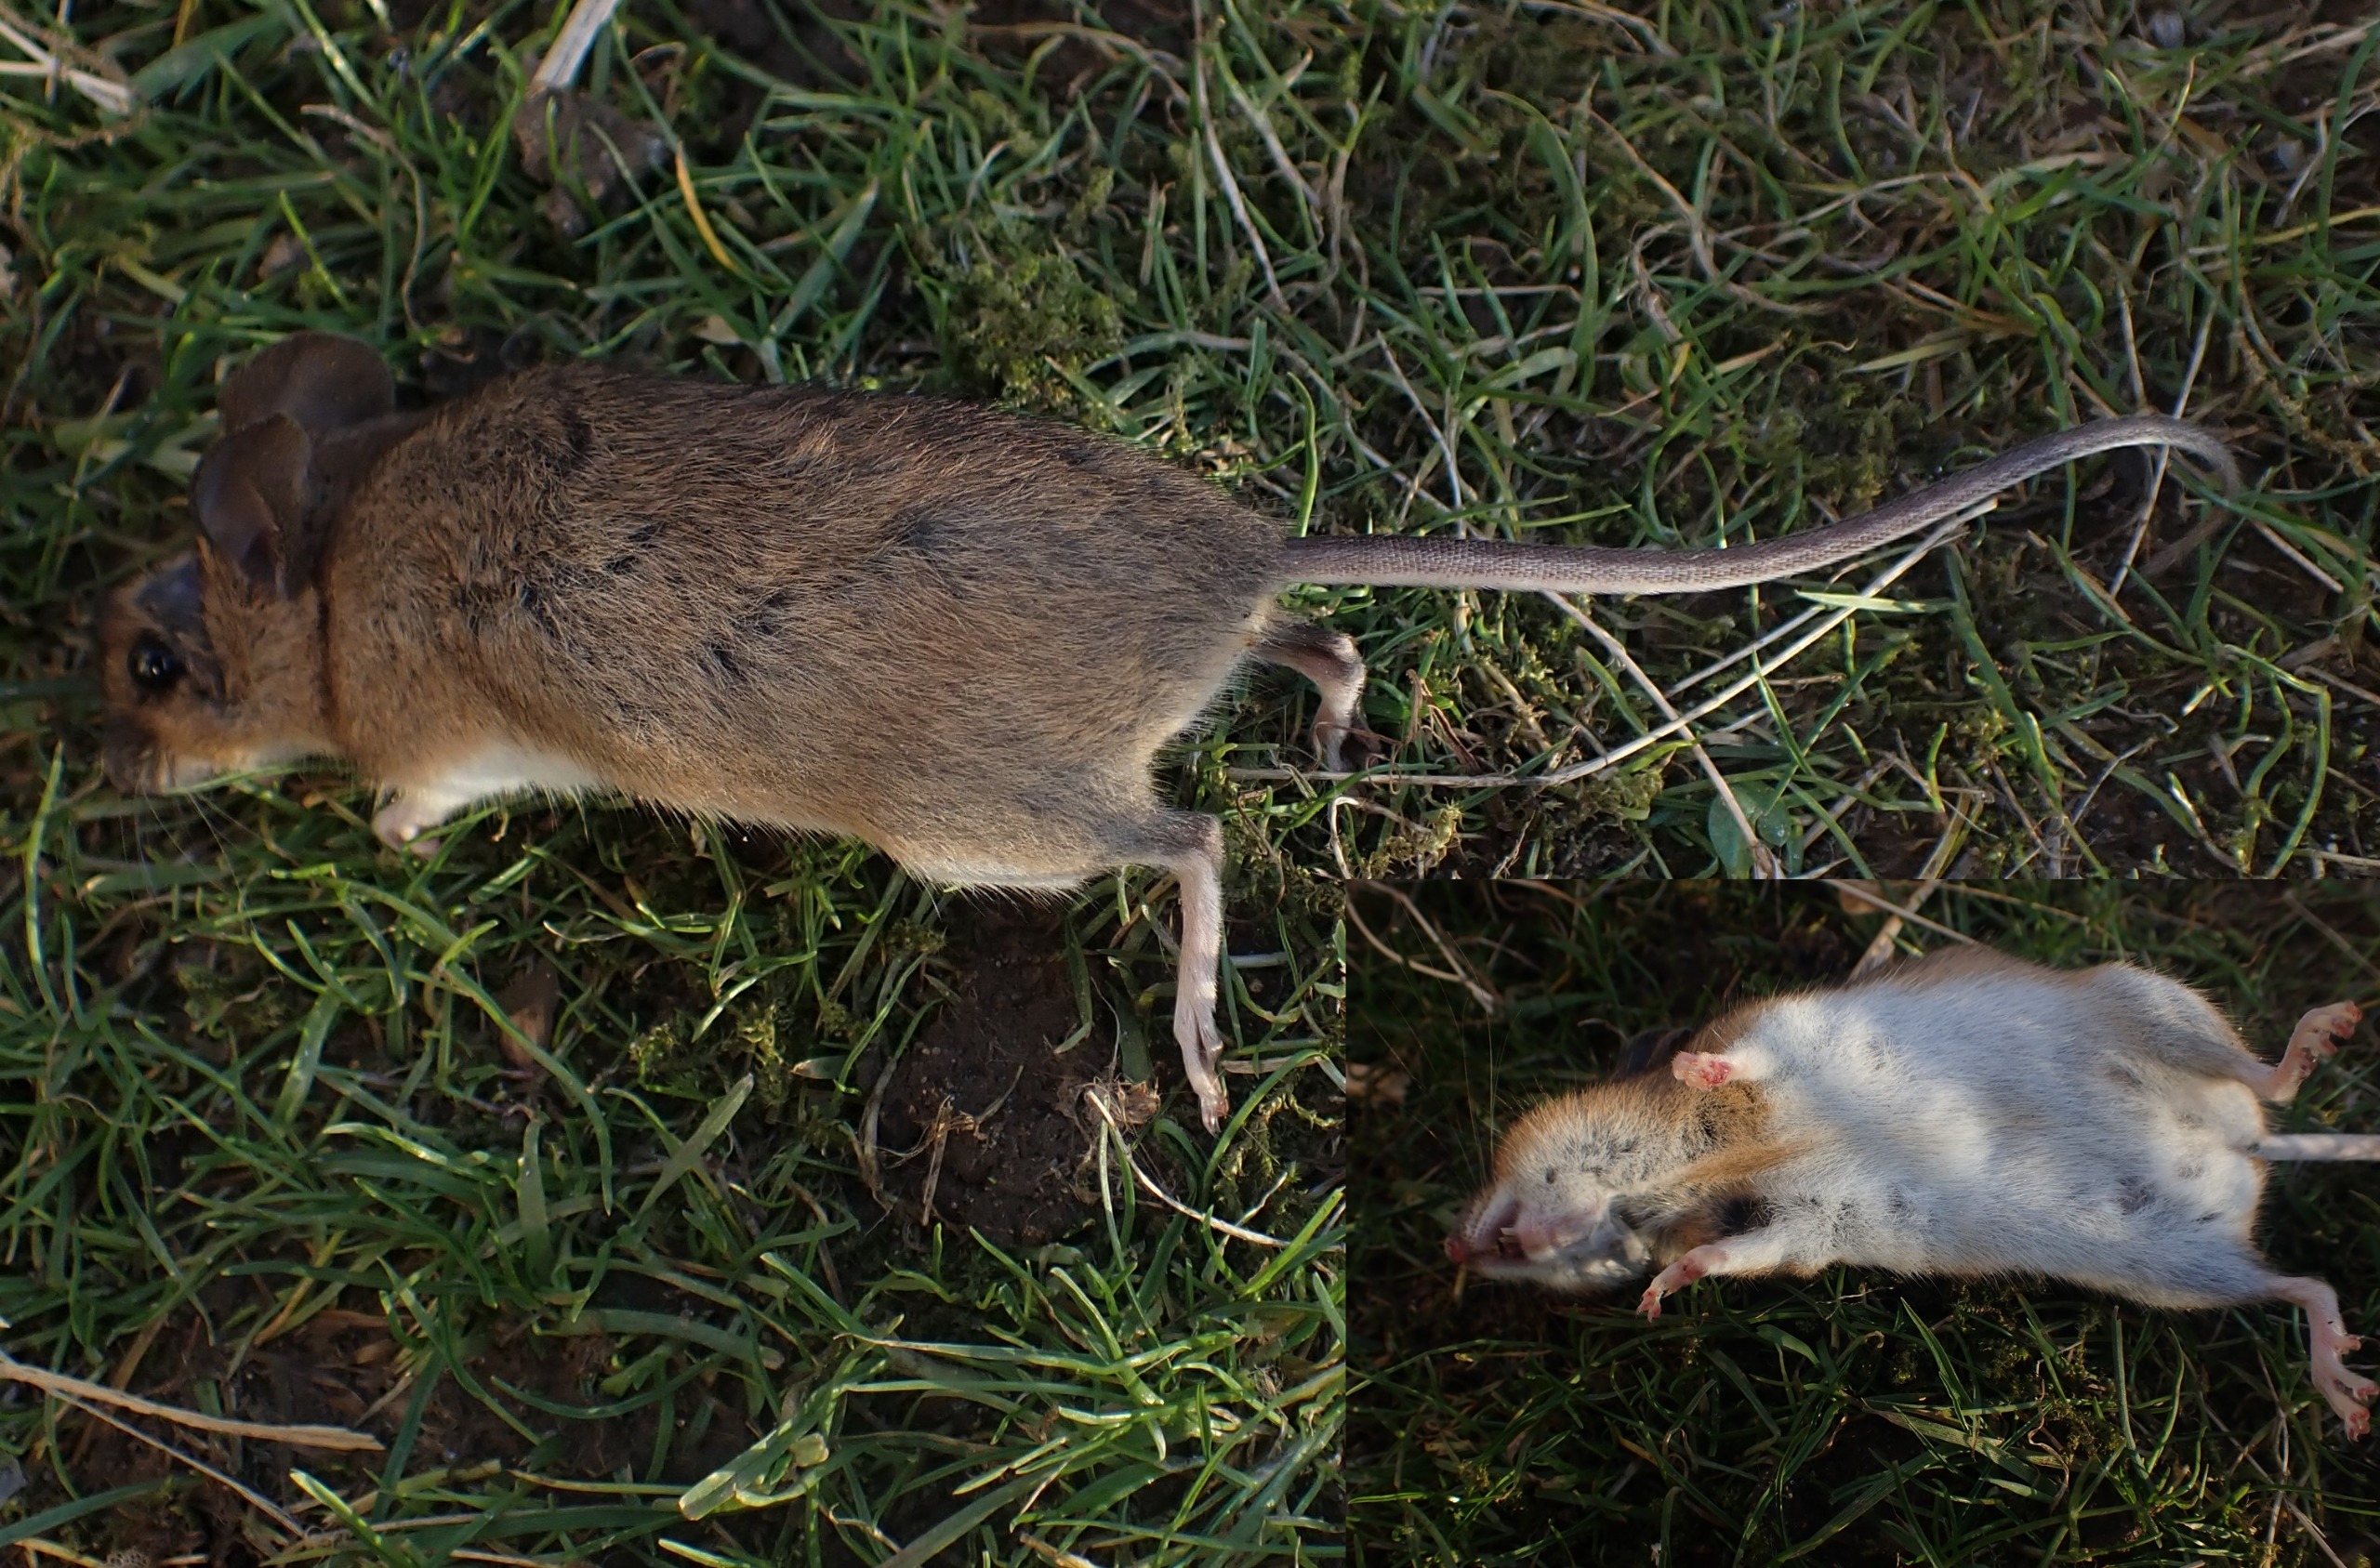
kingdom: Animalia
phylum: Chordata
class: Mammalia
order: Rodentia
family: Muridae
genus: Apodemus
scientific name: Apodemus flavicollis
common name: Halsbåndmus
